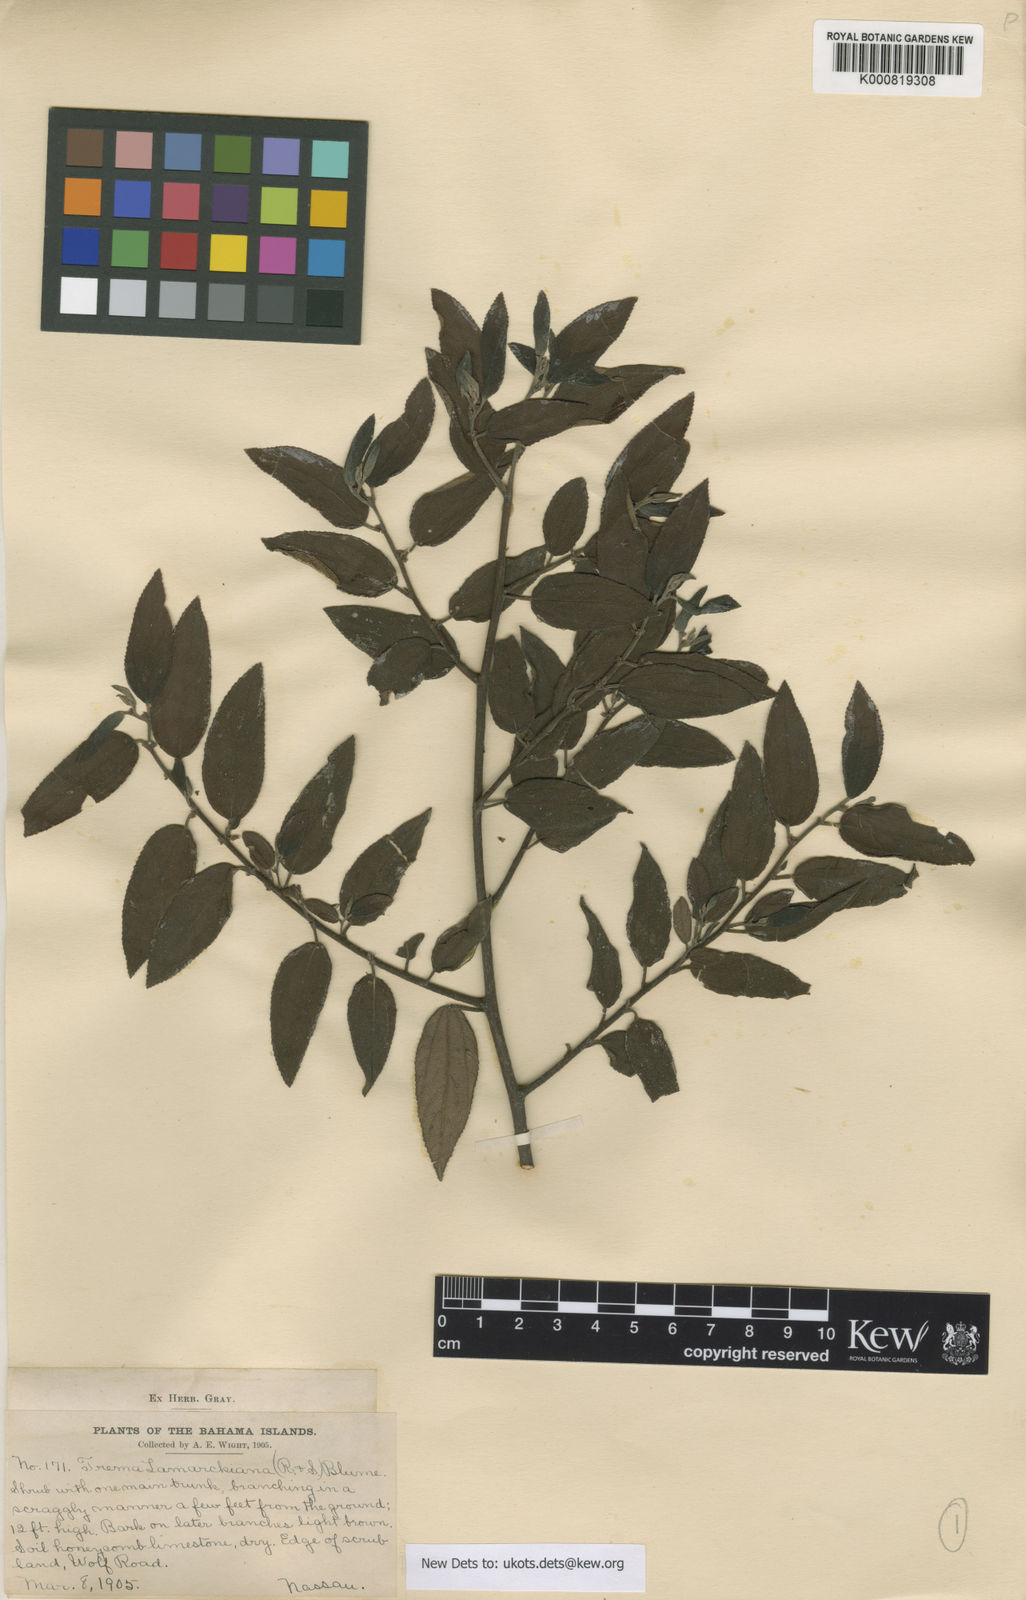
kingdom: Plantae
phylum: Tracheophyta
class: Magnoliopsida
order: Rosales
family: Cannabaceae
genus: Trema
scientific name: Trema lamarckianum
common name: Lamarck's trema
